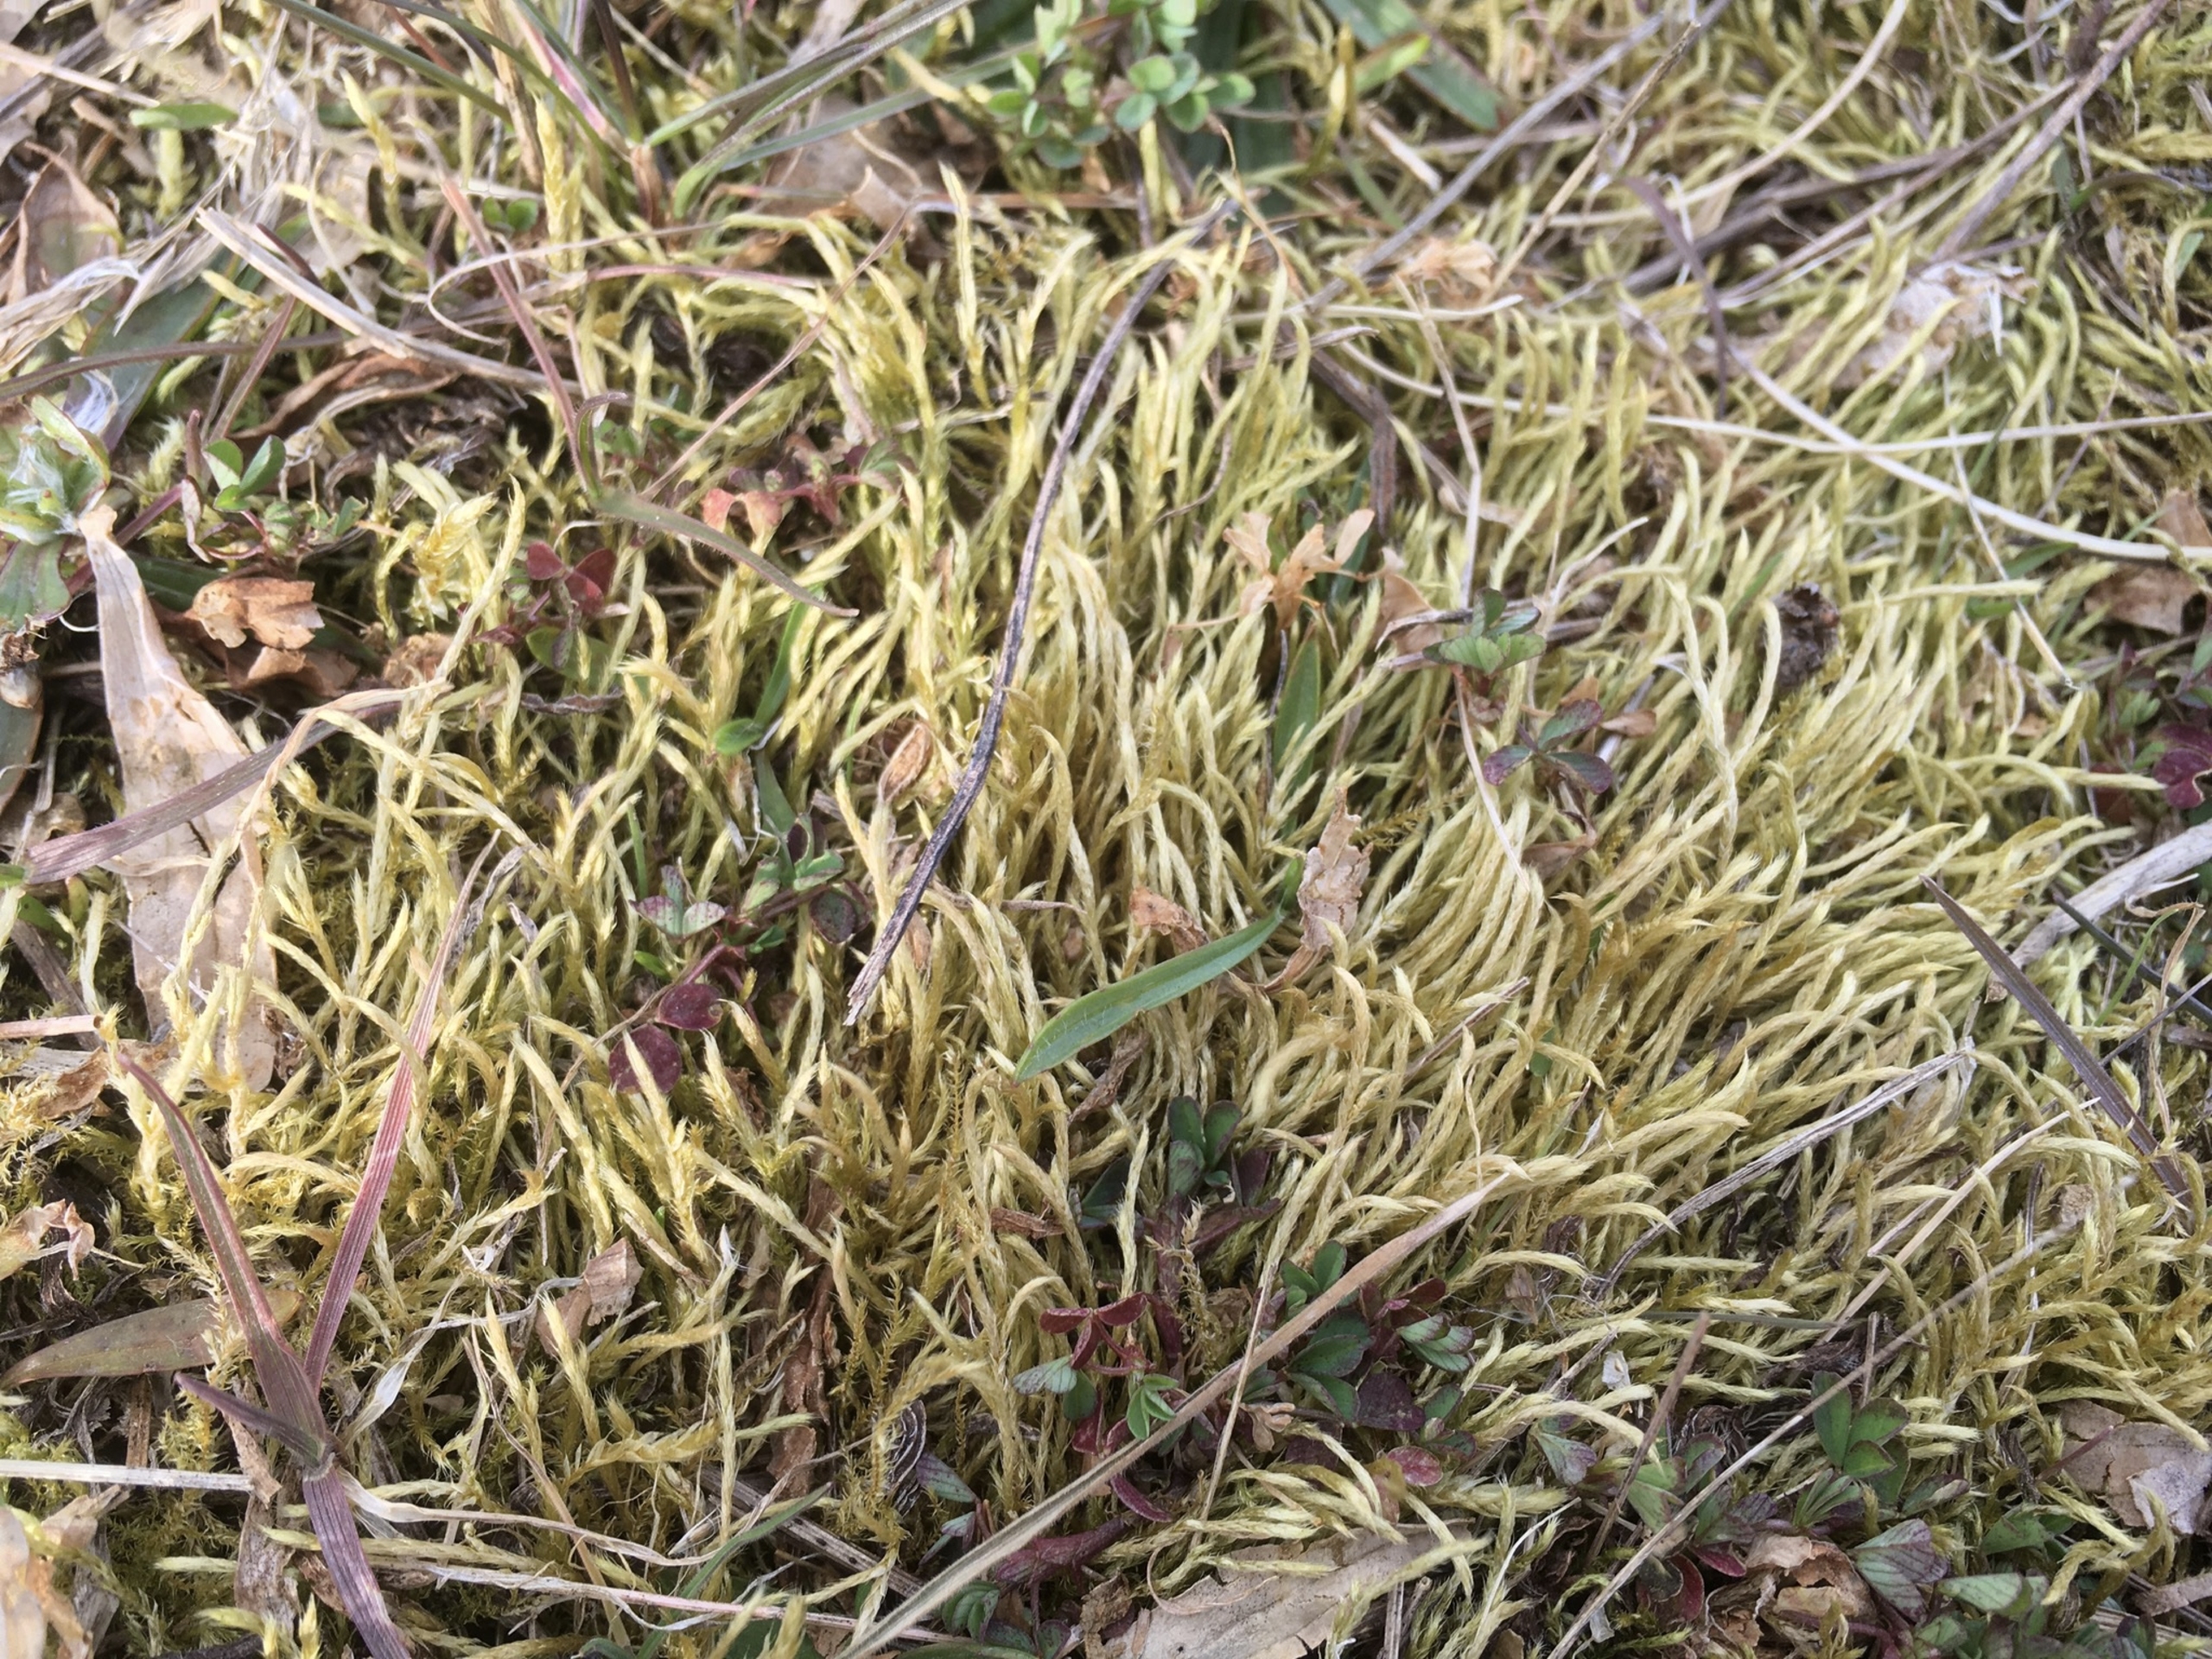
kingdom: Plantae
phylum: Bryophyta
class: Bryopsida
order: Hypnales
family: Brachytheciaceae
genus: Brachythecium
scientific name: Brachythecium albicans
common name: Hvidlig kortkapsel
